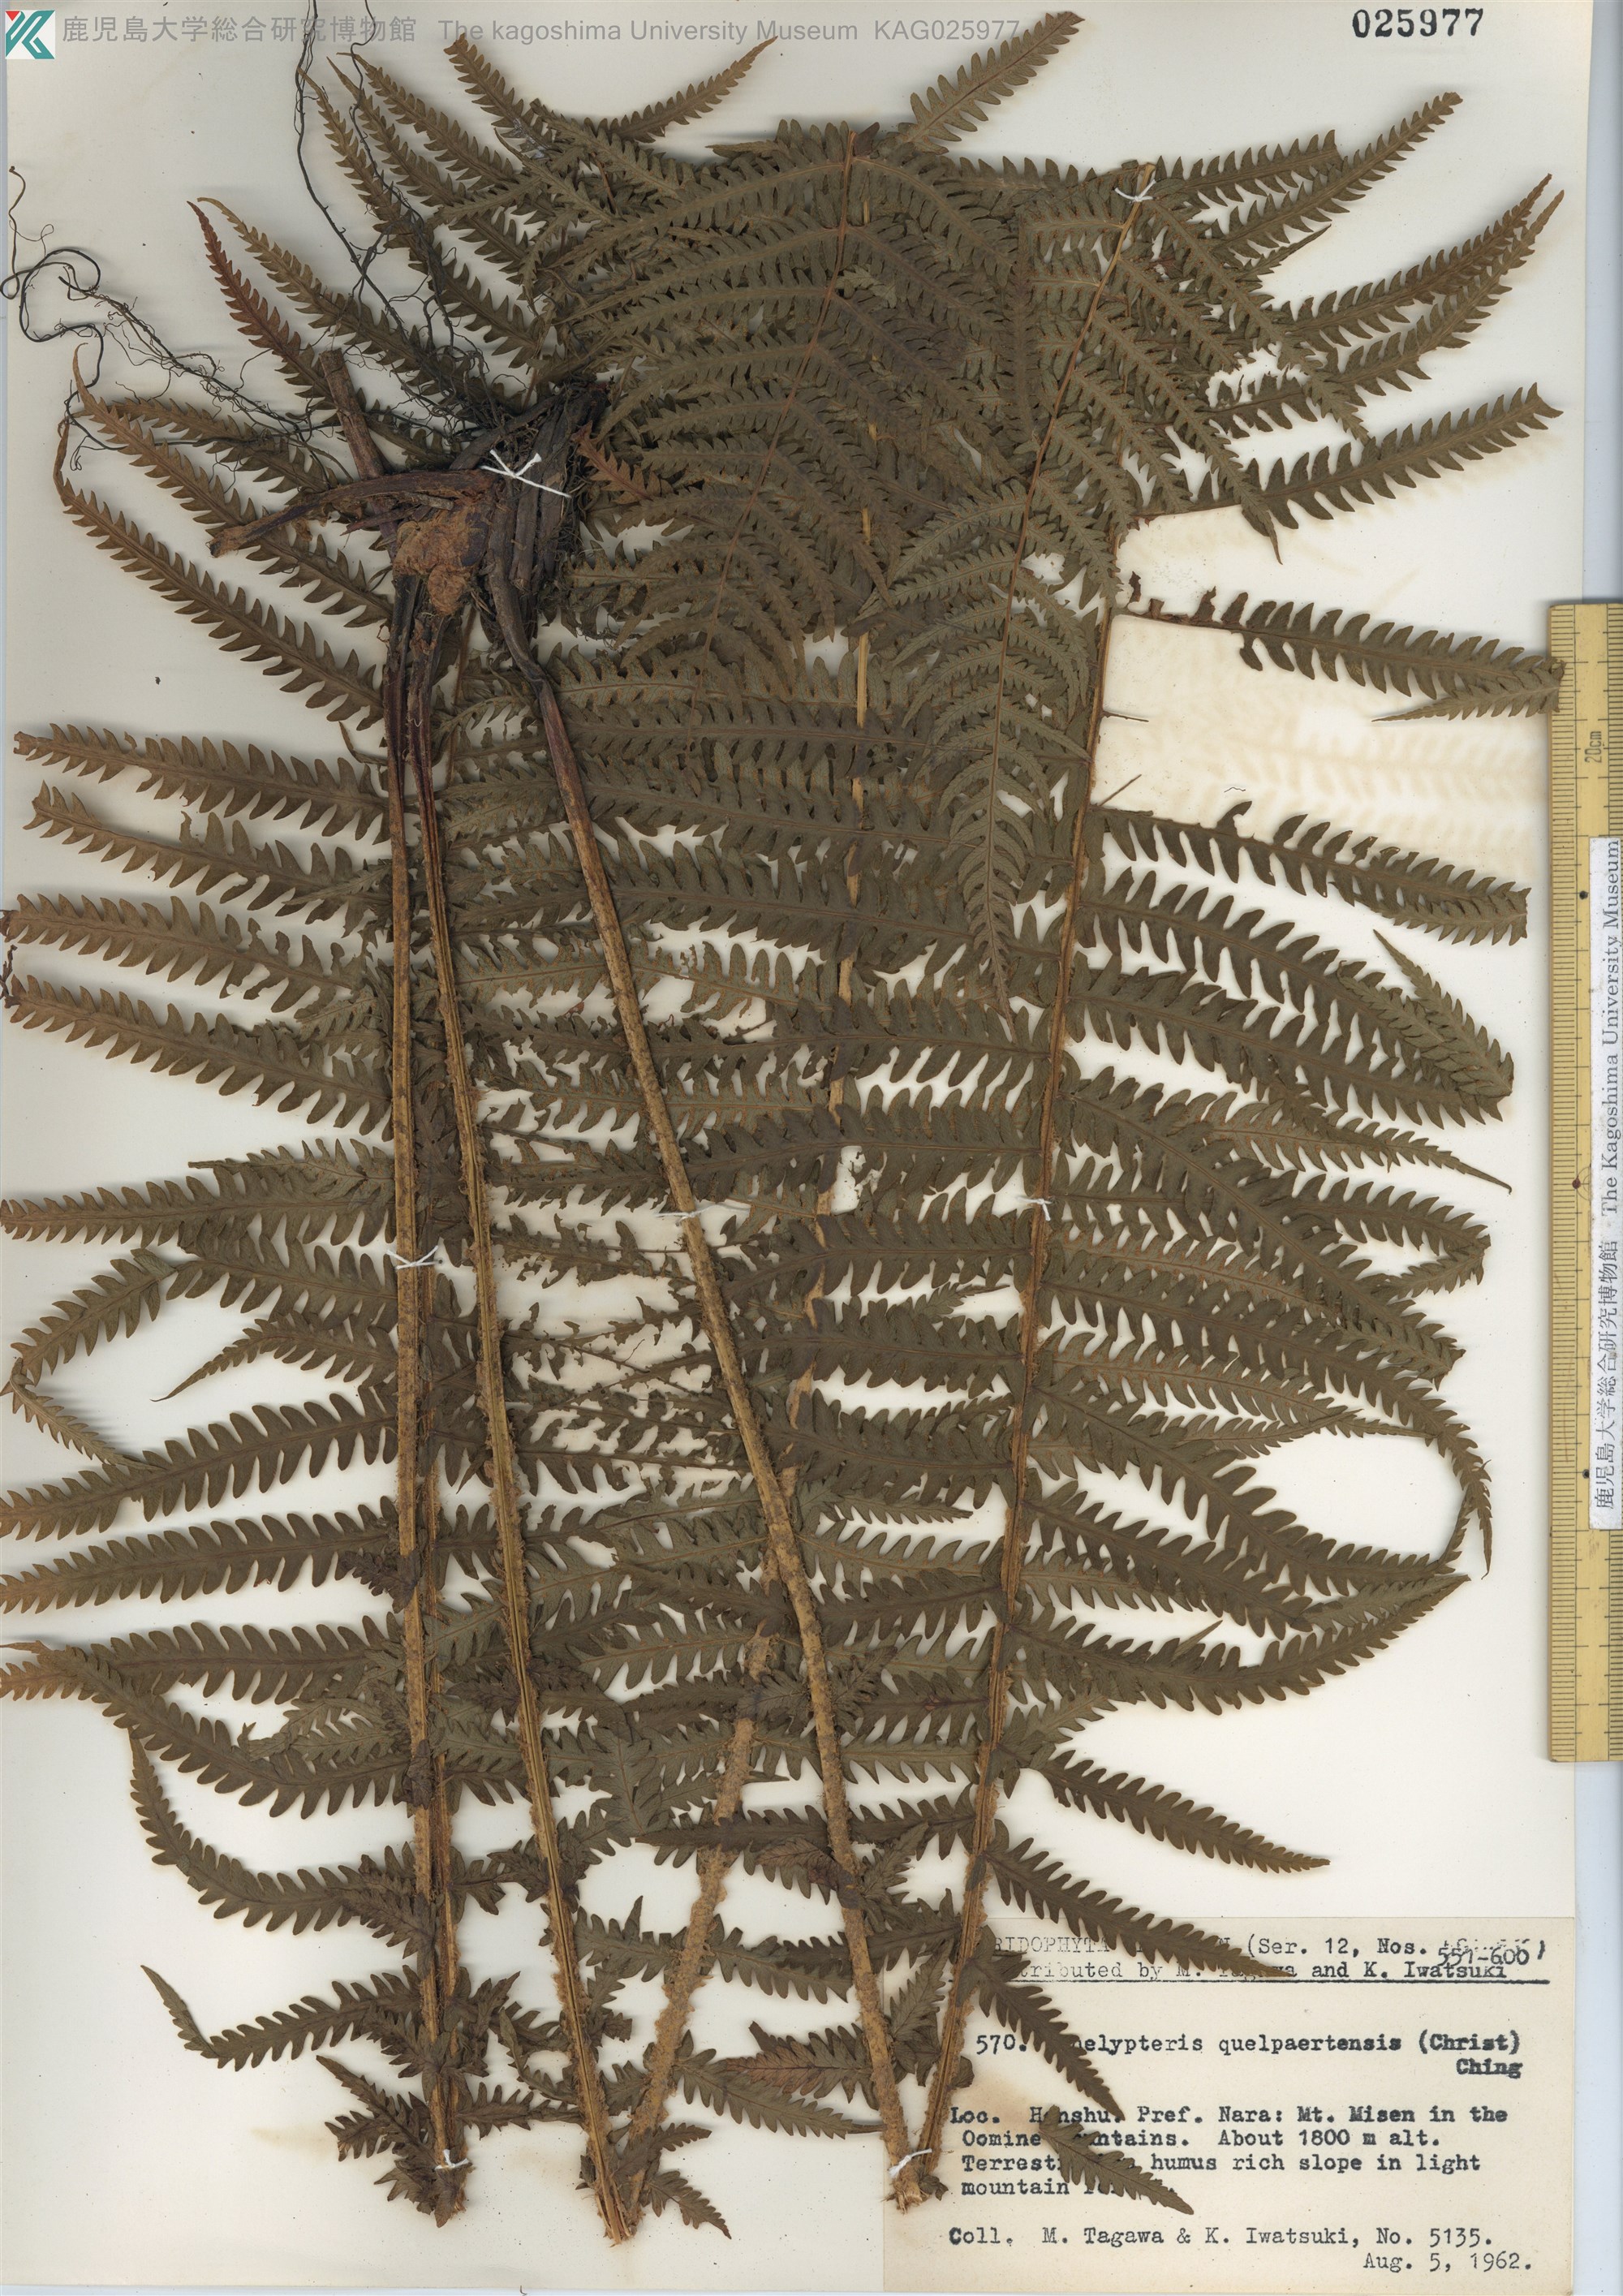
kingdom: Plantae
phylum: Tracheophyta
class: Polypodiopsida
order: Polypodiales
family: Thelypteridaceae
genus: Oreopteris
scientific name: Oreopteris quelpartensis
